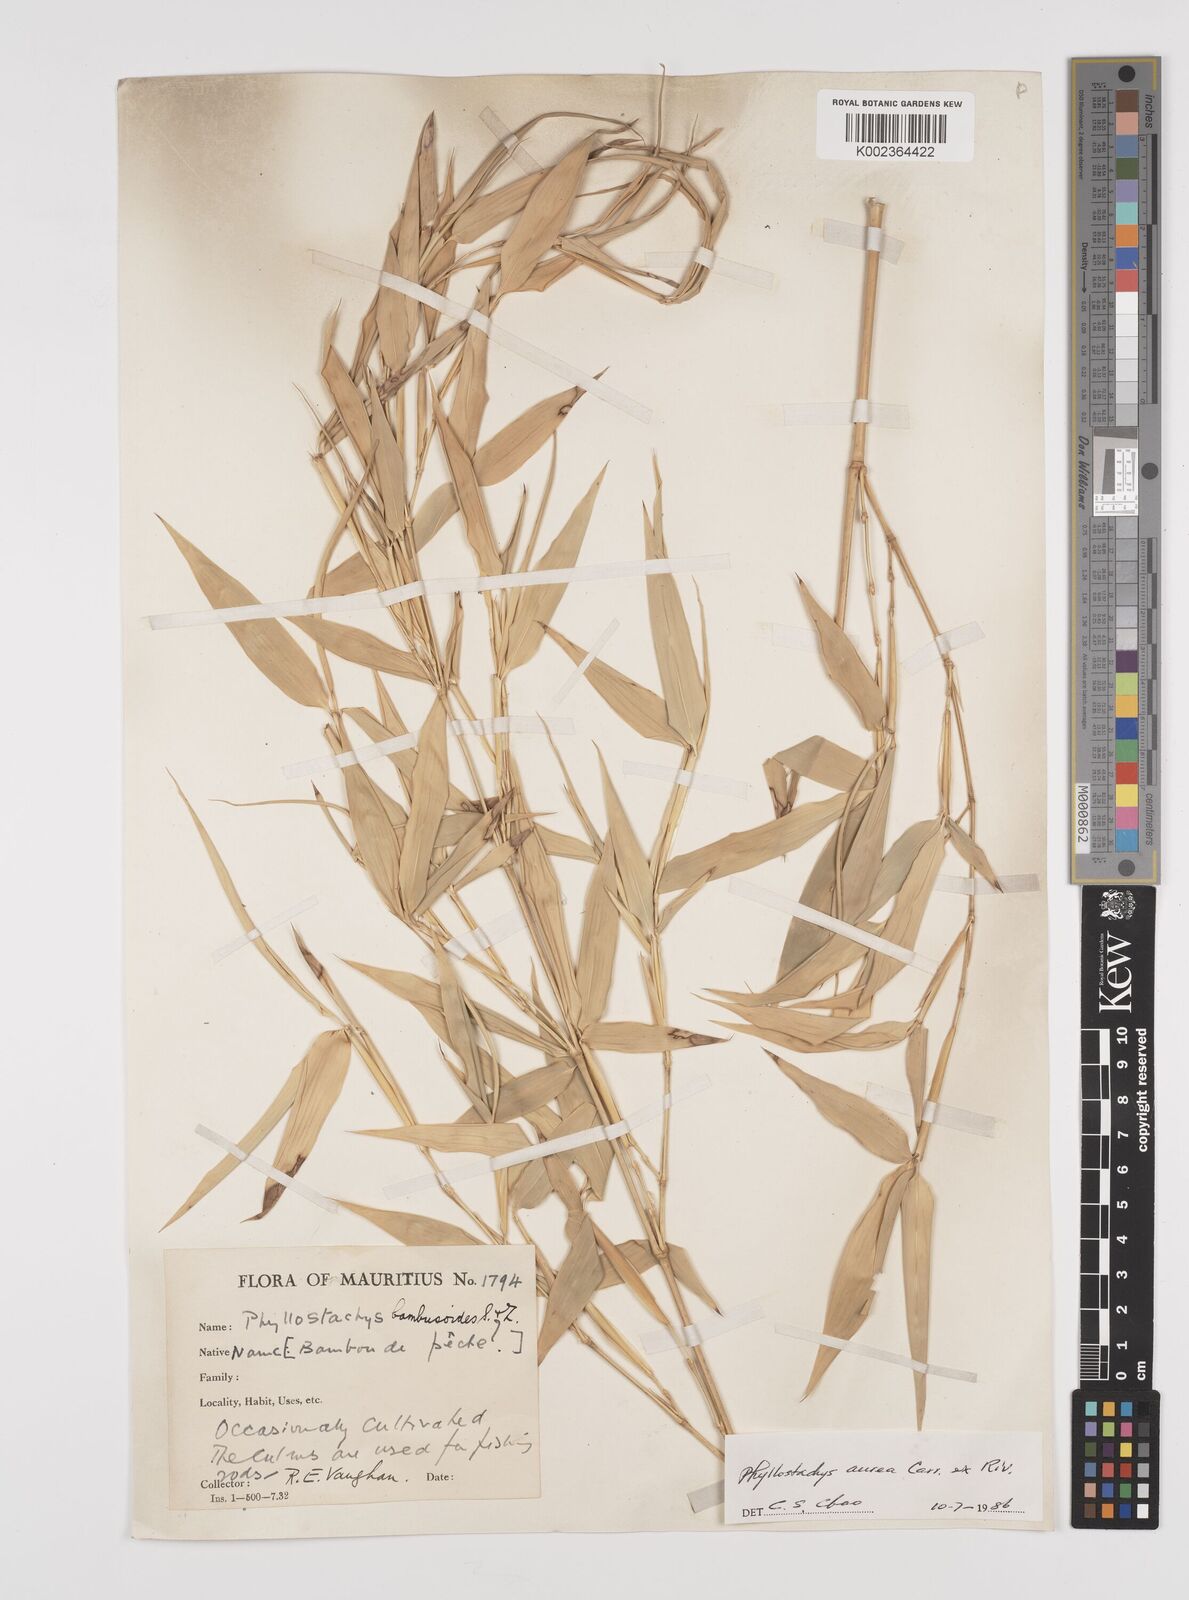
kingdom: Plantae
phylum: Tracheophyta
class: Liliopsida
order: Poales
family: Poaceae
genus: Phyllostachys
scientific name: Phyllostachys aurea
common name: Golden bamboo
